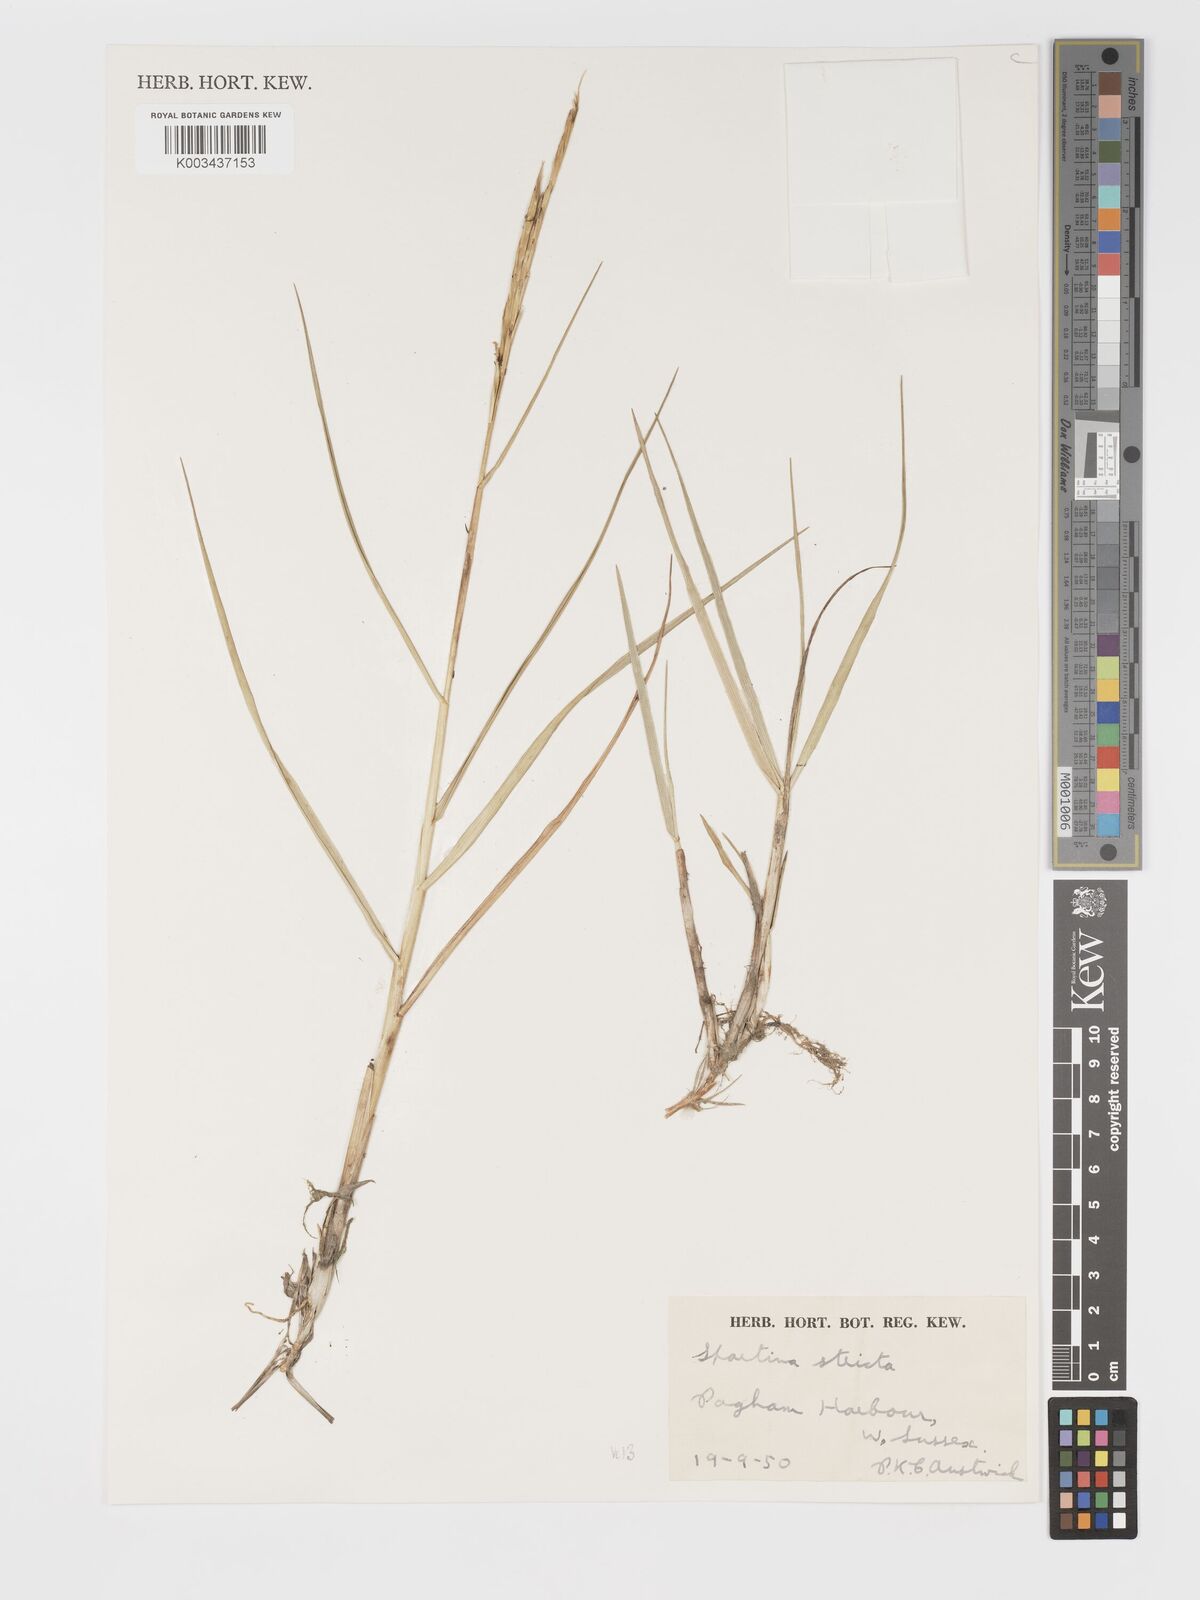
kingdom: Plantae
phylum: Tracheophyta
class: Liliopsida
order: Poales
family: Poaceae
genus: Sporobolus
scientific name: Sporobolus maritimus
